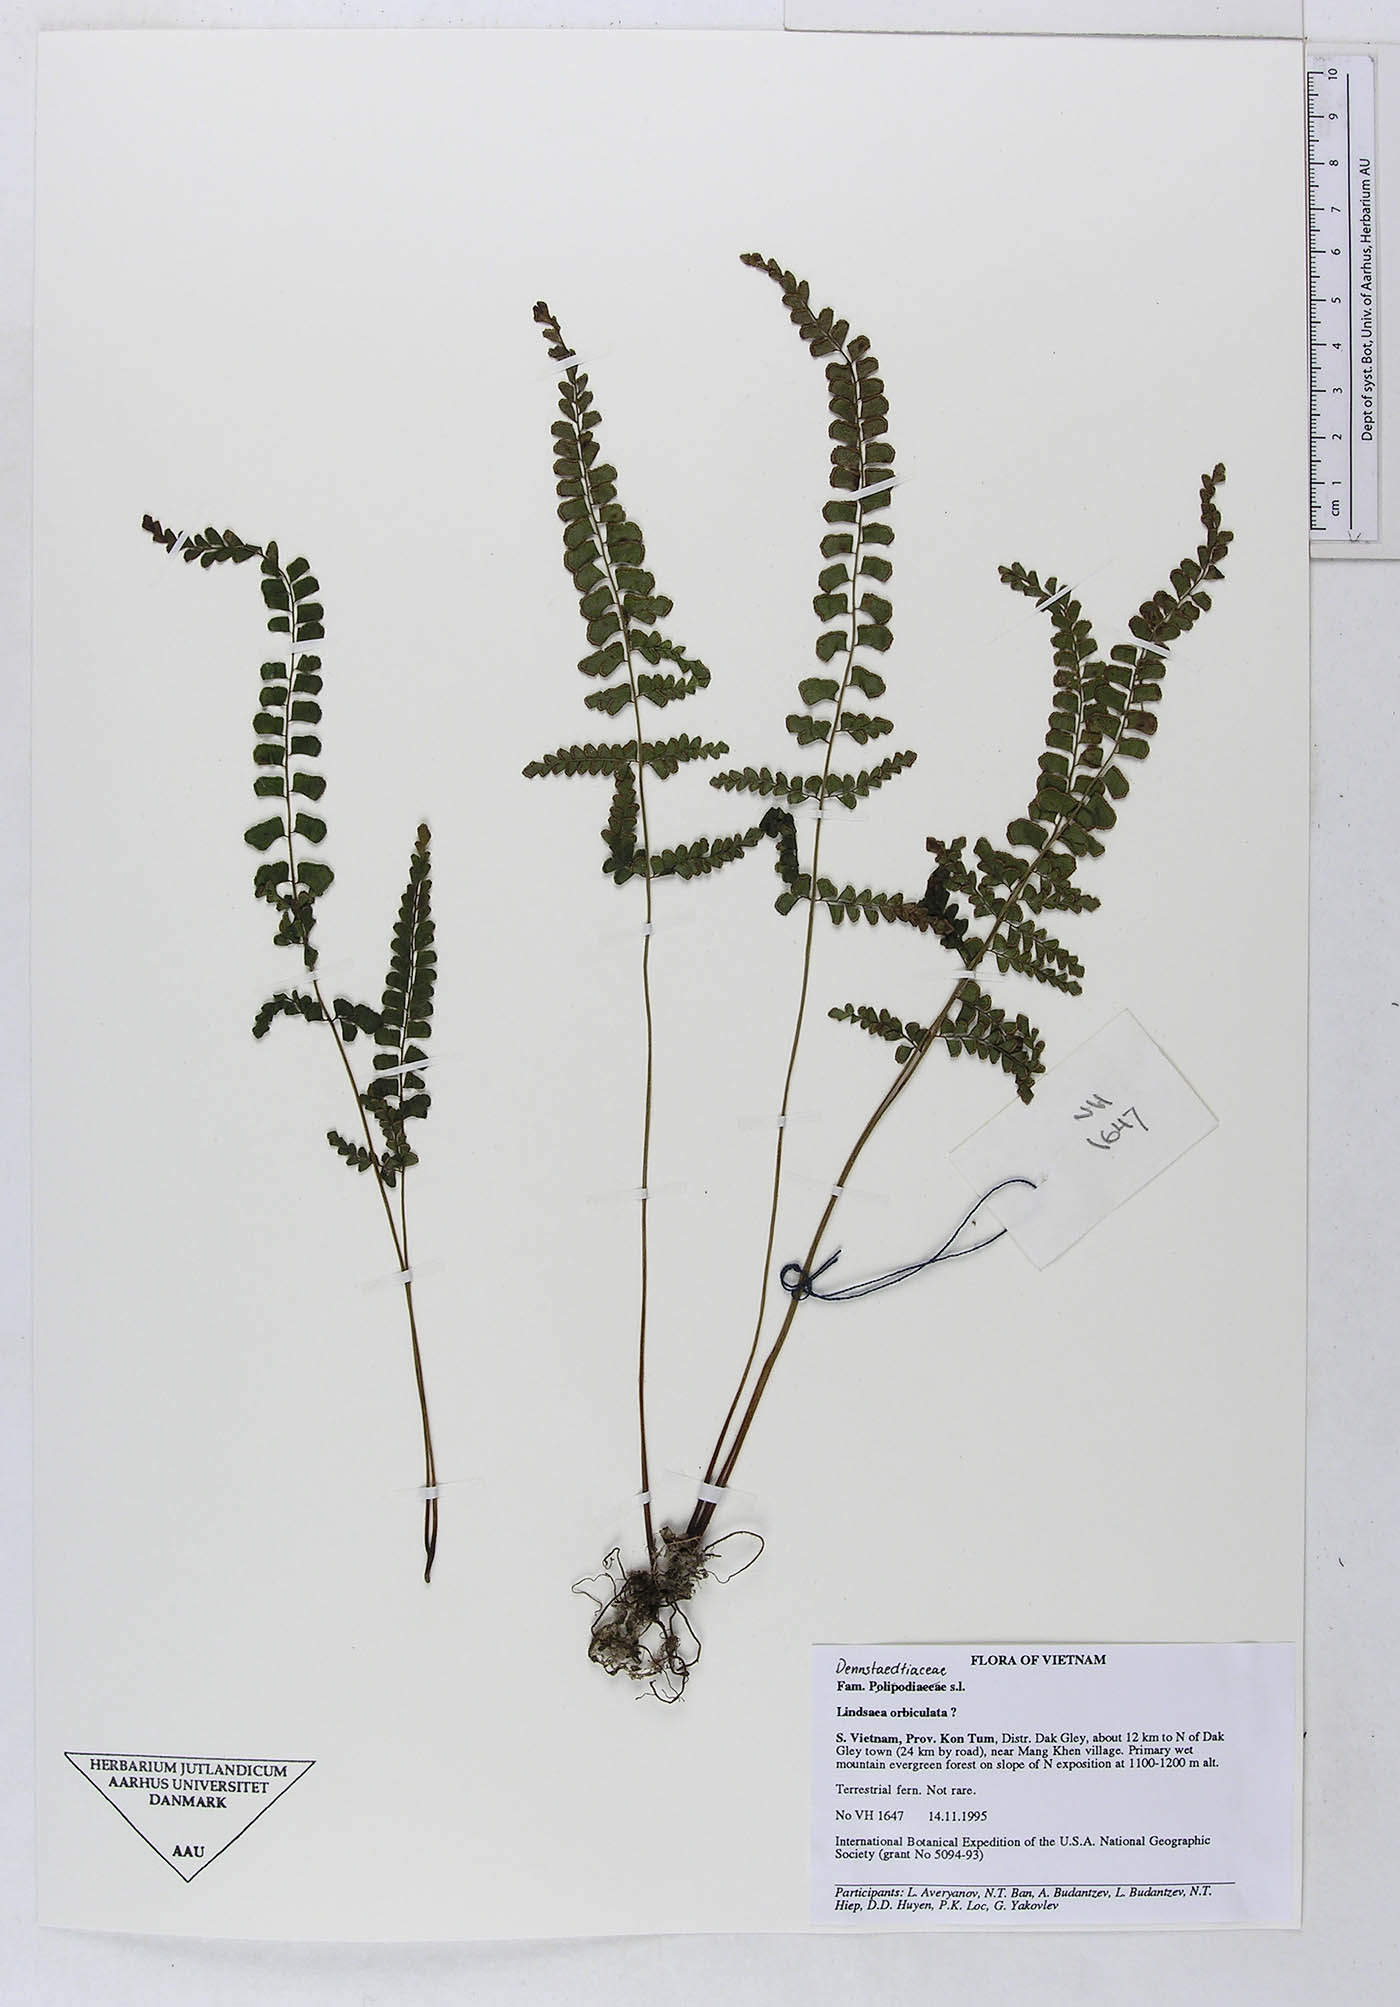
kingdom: Plantae
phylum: Tracheophyta
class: Polypodiopsida
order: Polypodiales
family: Lindsaeaceae
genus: Lindsaea
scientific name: Lindsaea orbiculata
